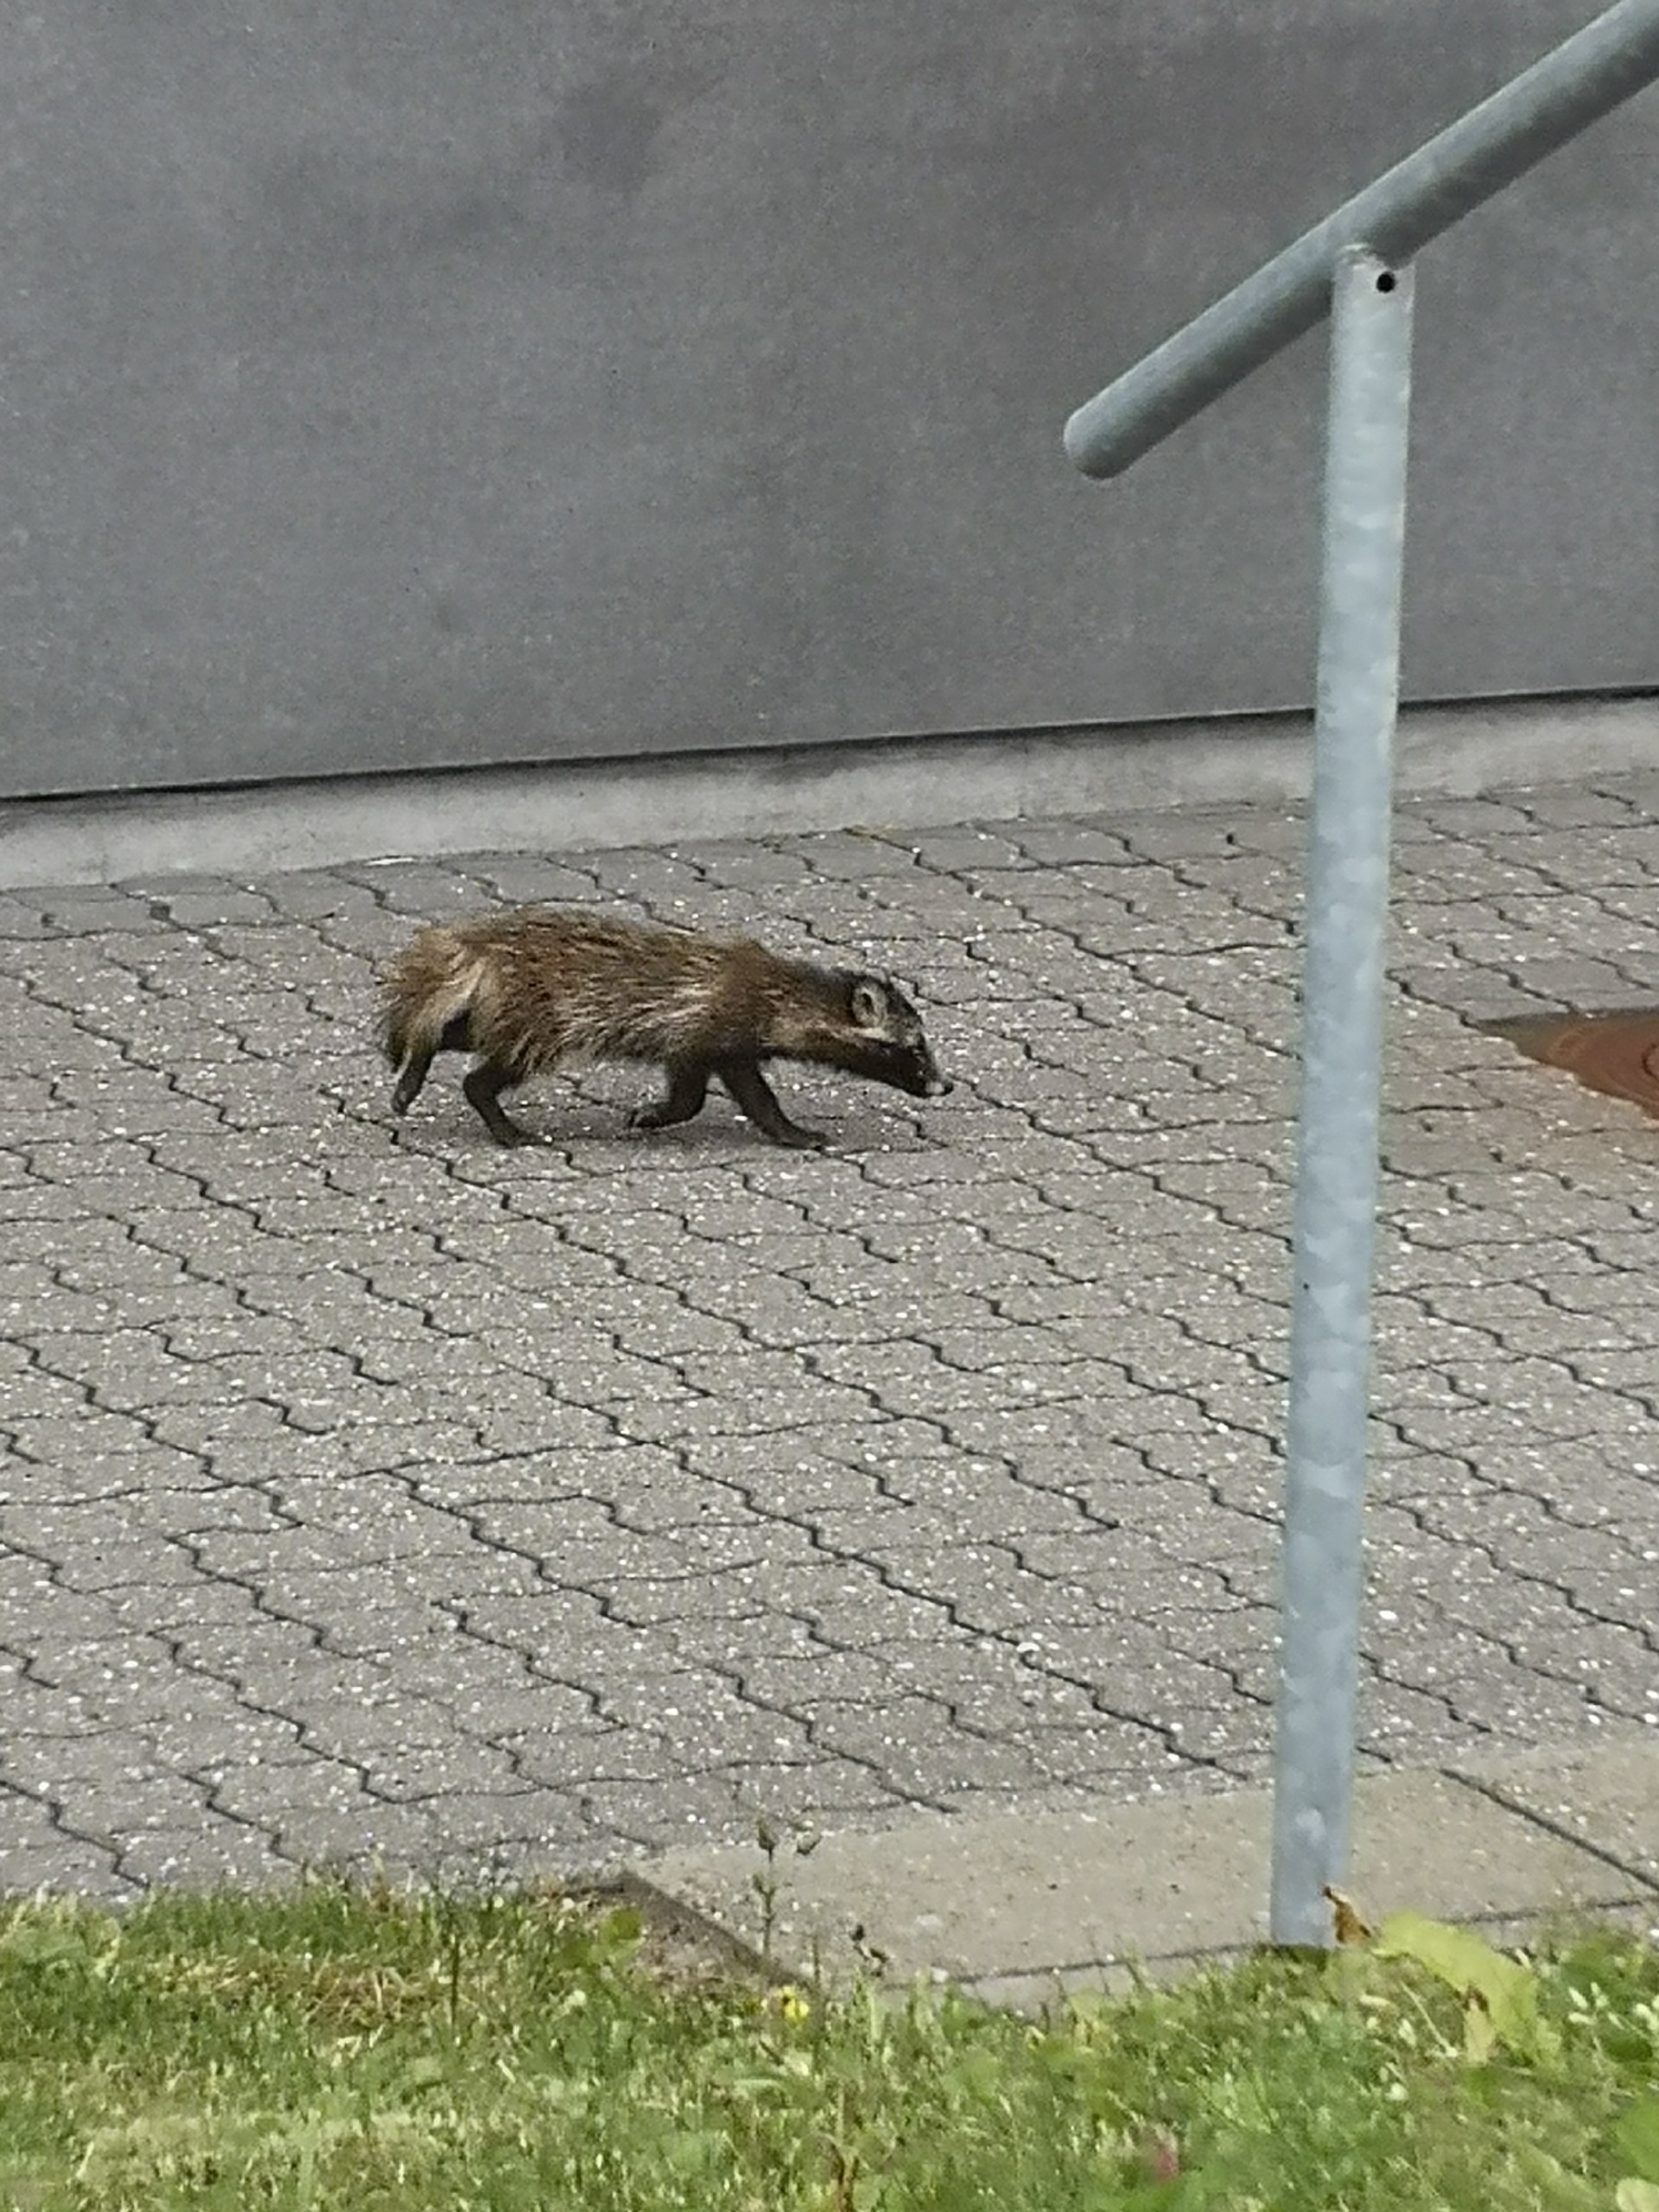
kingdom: Animalia
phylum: Chordata
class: Mammalia
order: Carnivora
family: Canidae
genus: Nyctereutes
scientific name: Nyctereutes procyonoides
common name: Mårhund
